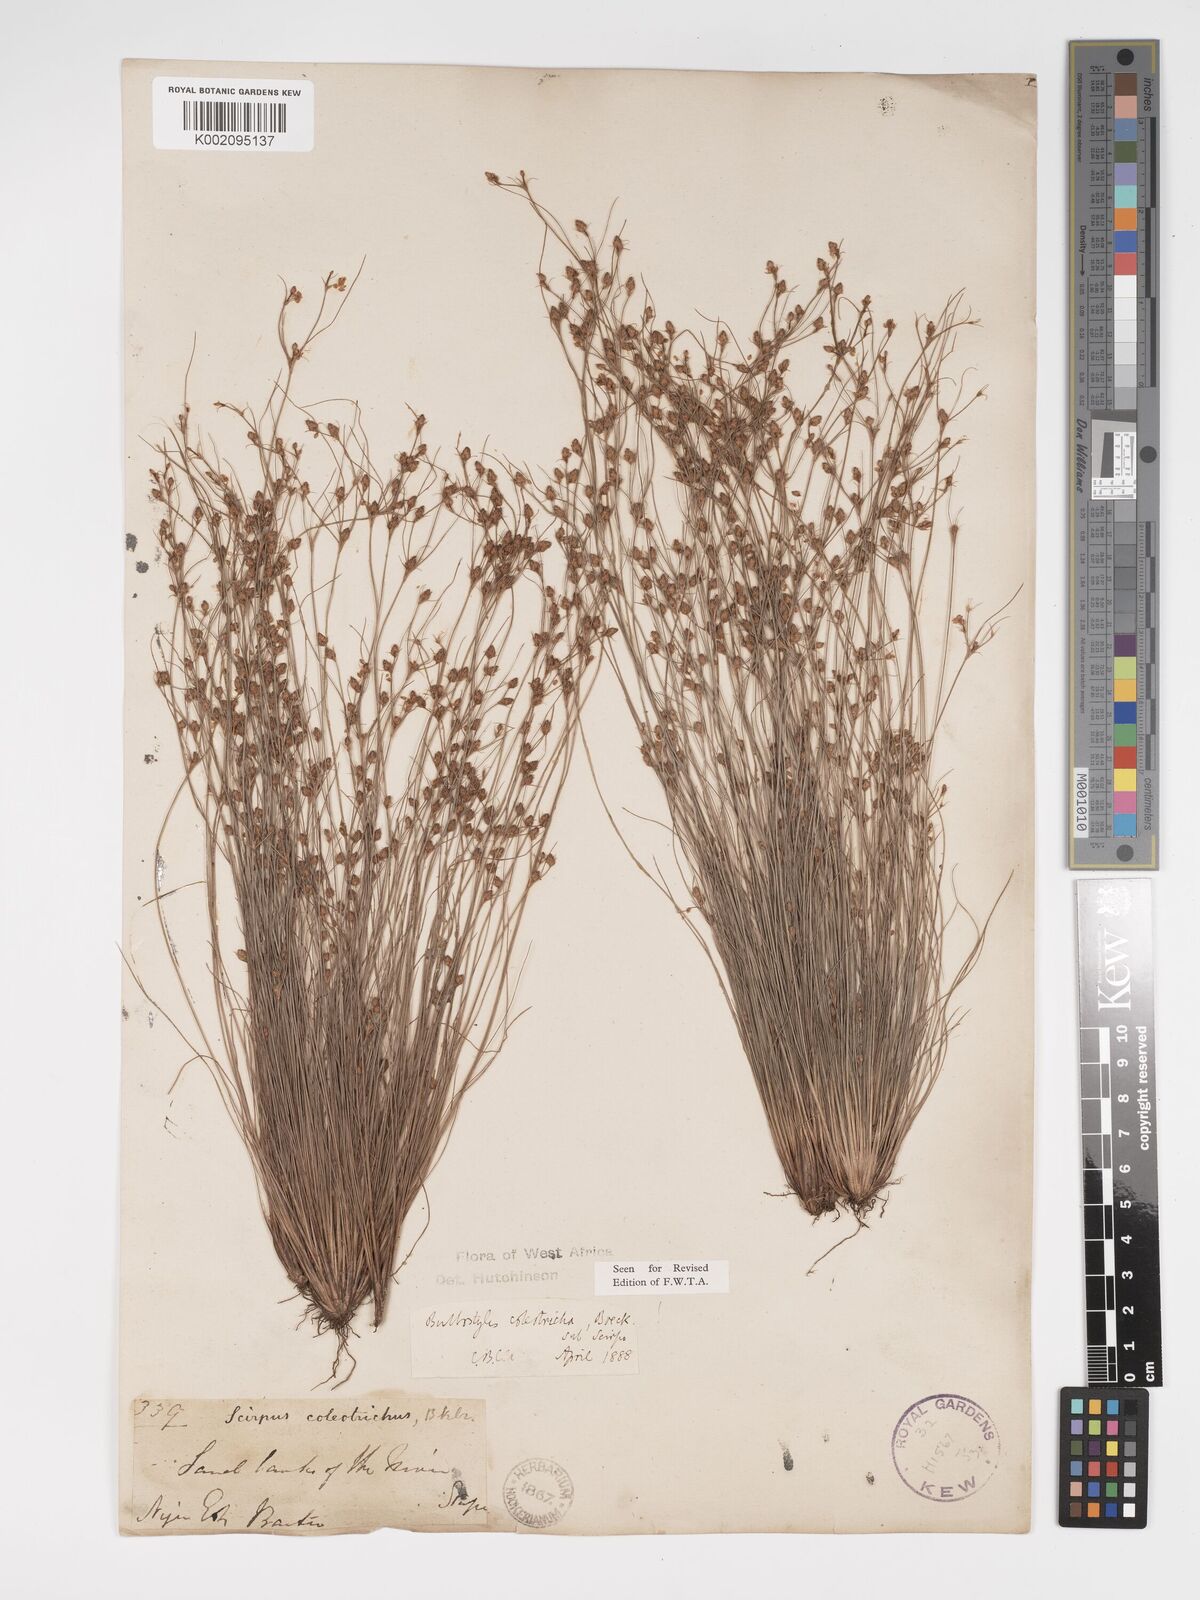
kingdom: Plantae
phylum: Tracheophyta
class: Liliopsida
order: Poales
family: Cyperaceae
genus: Bulbostylis
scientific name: Bulbostylis coleotricha
